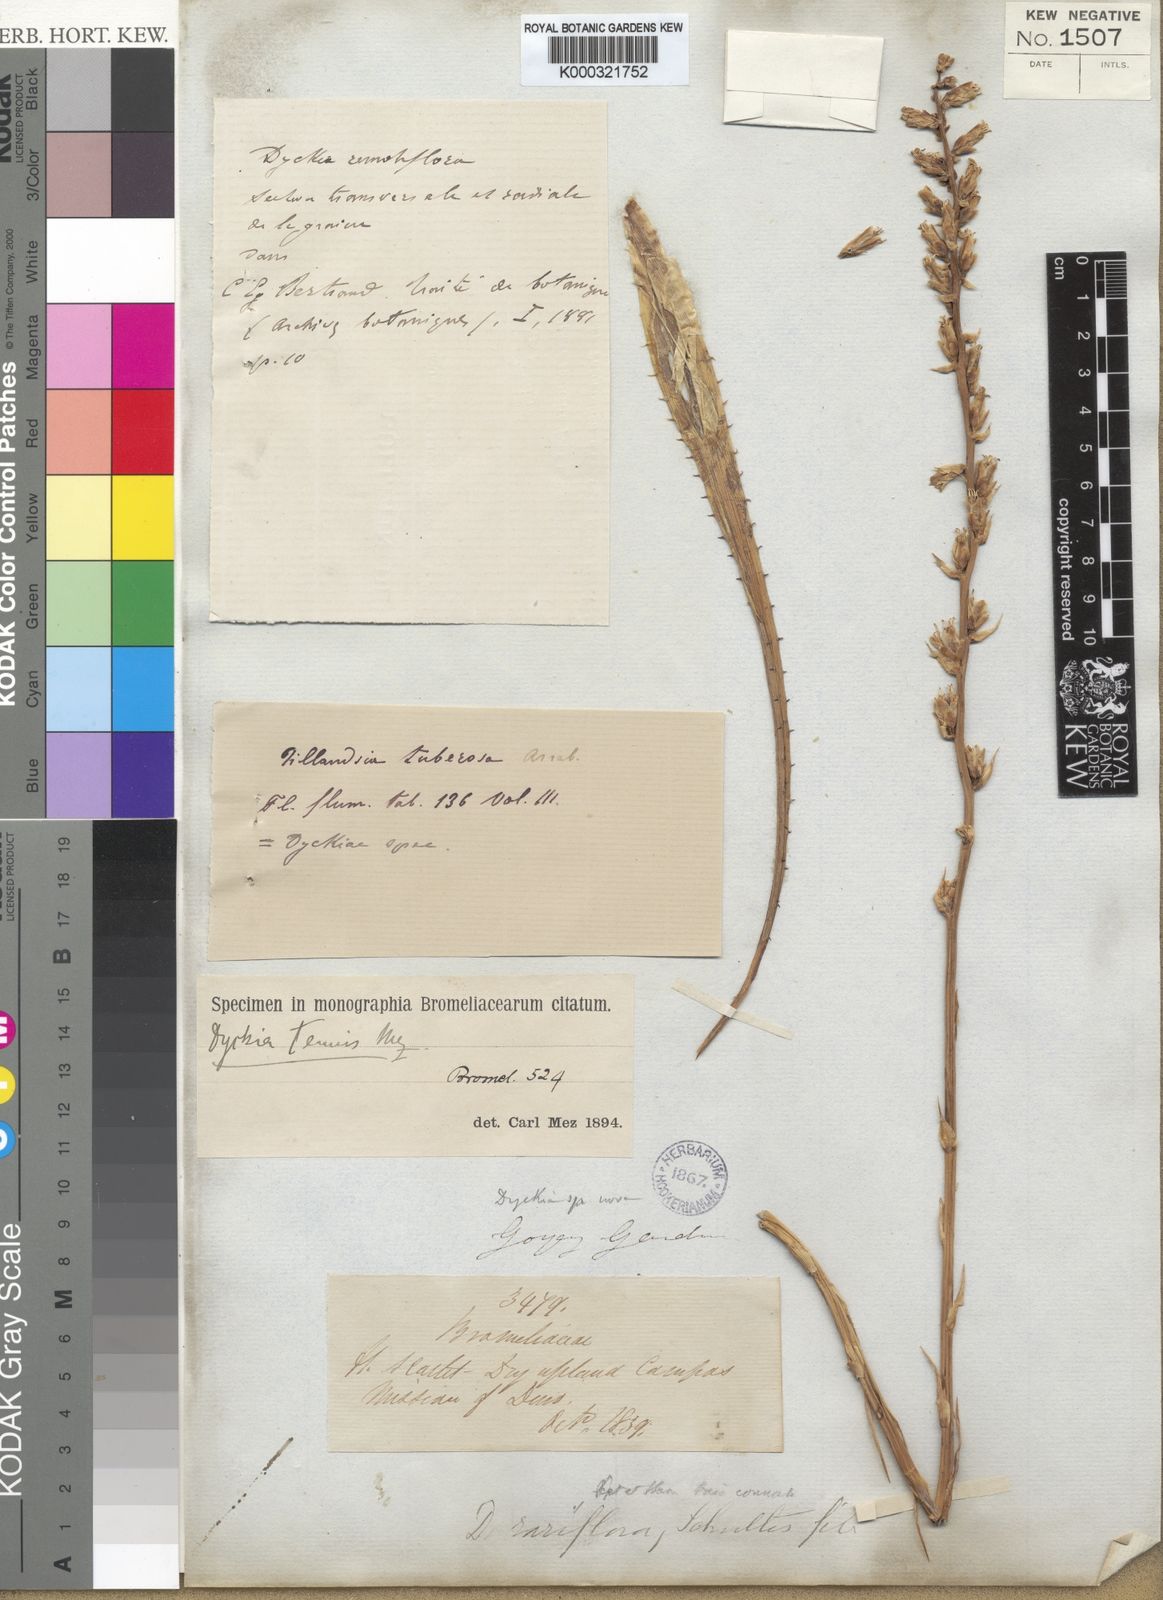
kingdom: Plantae
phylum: Tracheophyta
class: Liliopsida
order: Poales
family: Bromeliaceae
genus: Dyckia
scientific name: Dyckia tenuis
